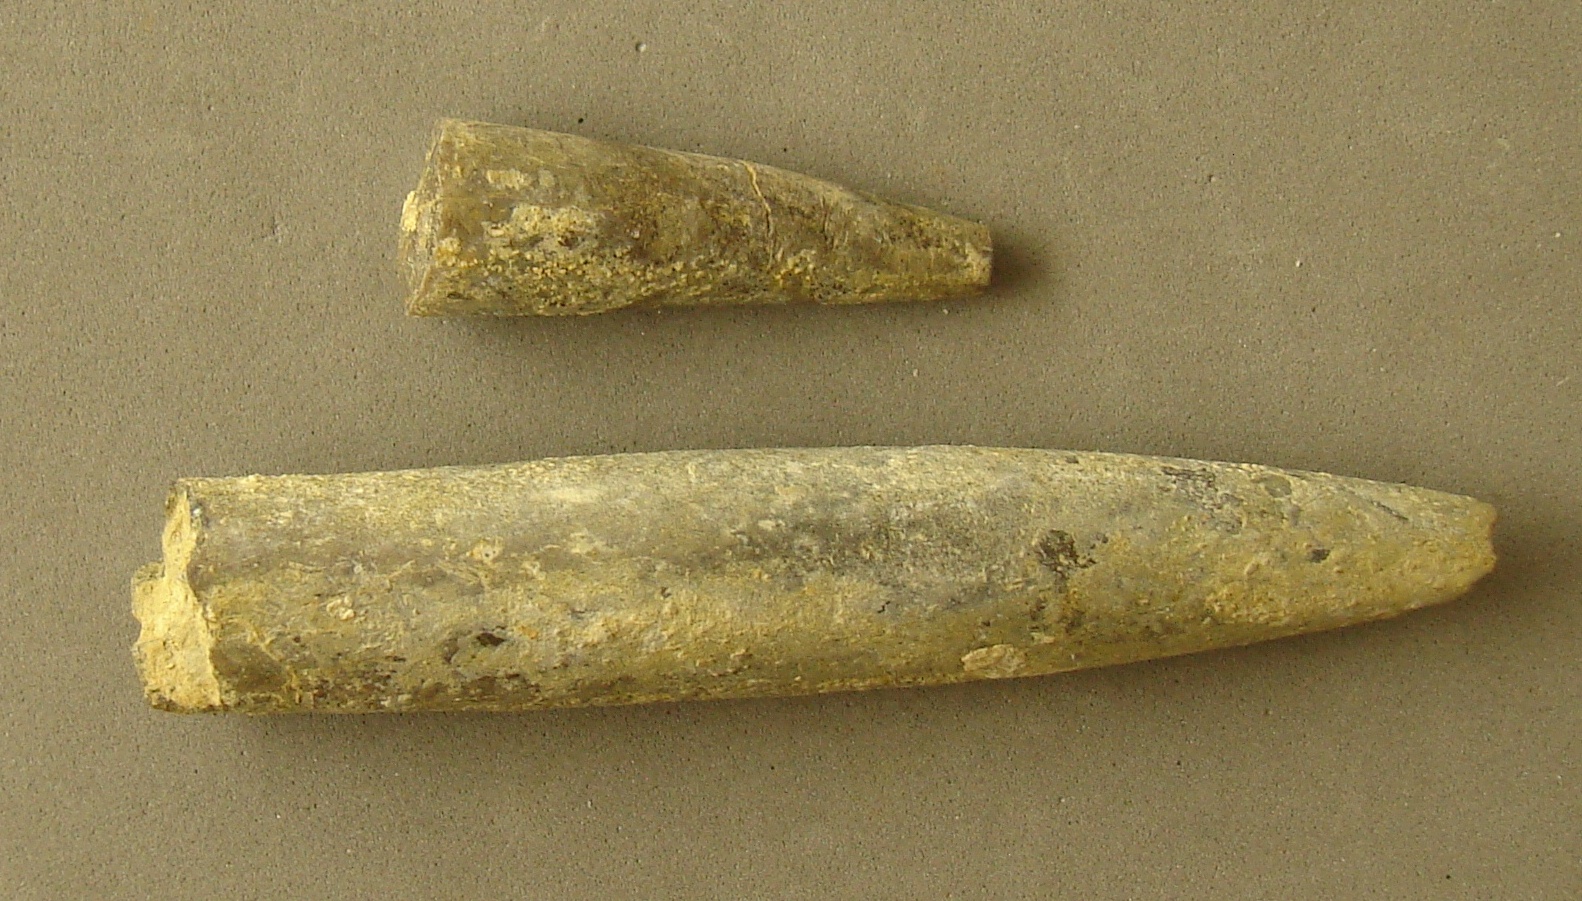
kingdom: Animalia
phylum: Mollusca
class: Cephalopoda
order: Belemnitida
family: Passaloteuthidae
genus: Pseudohastites
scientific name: Pseudohastites
